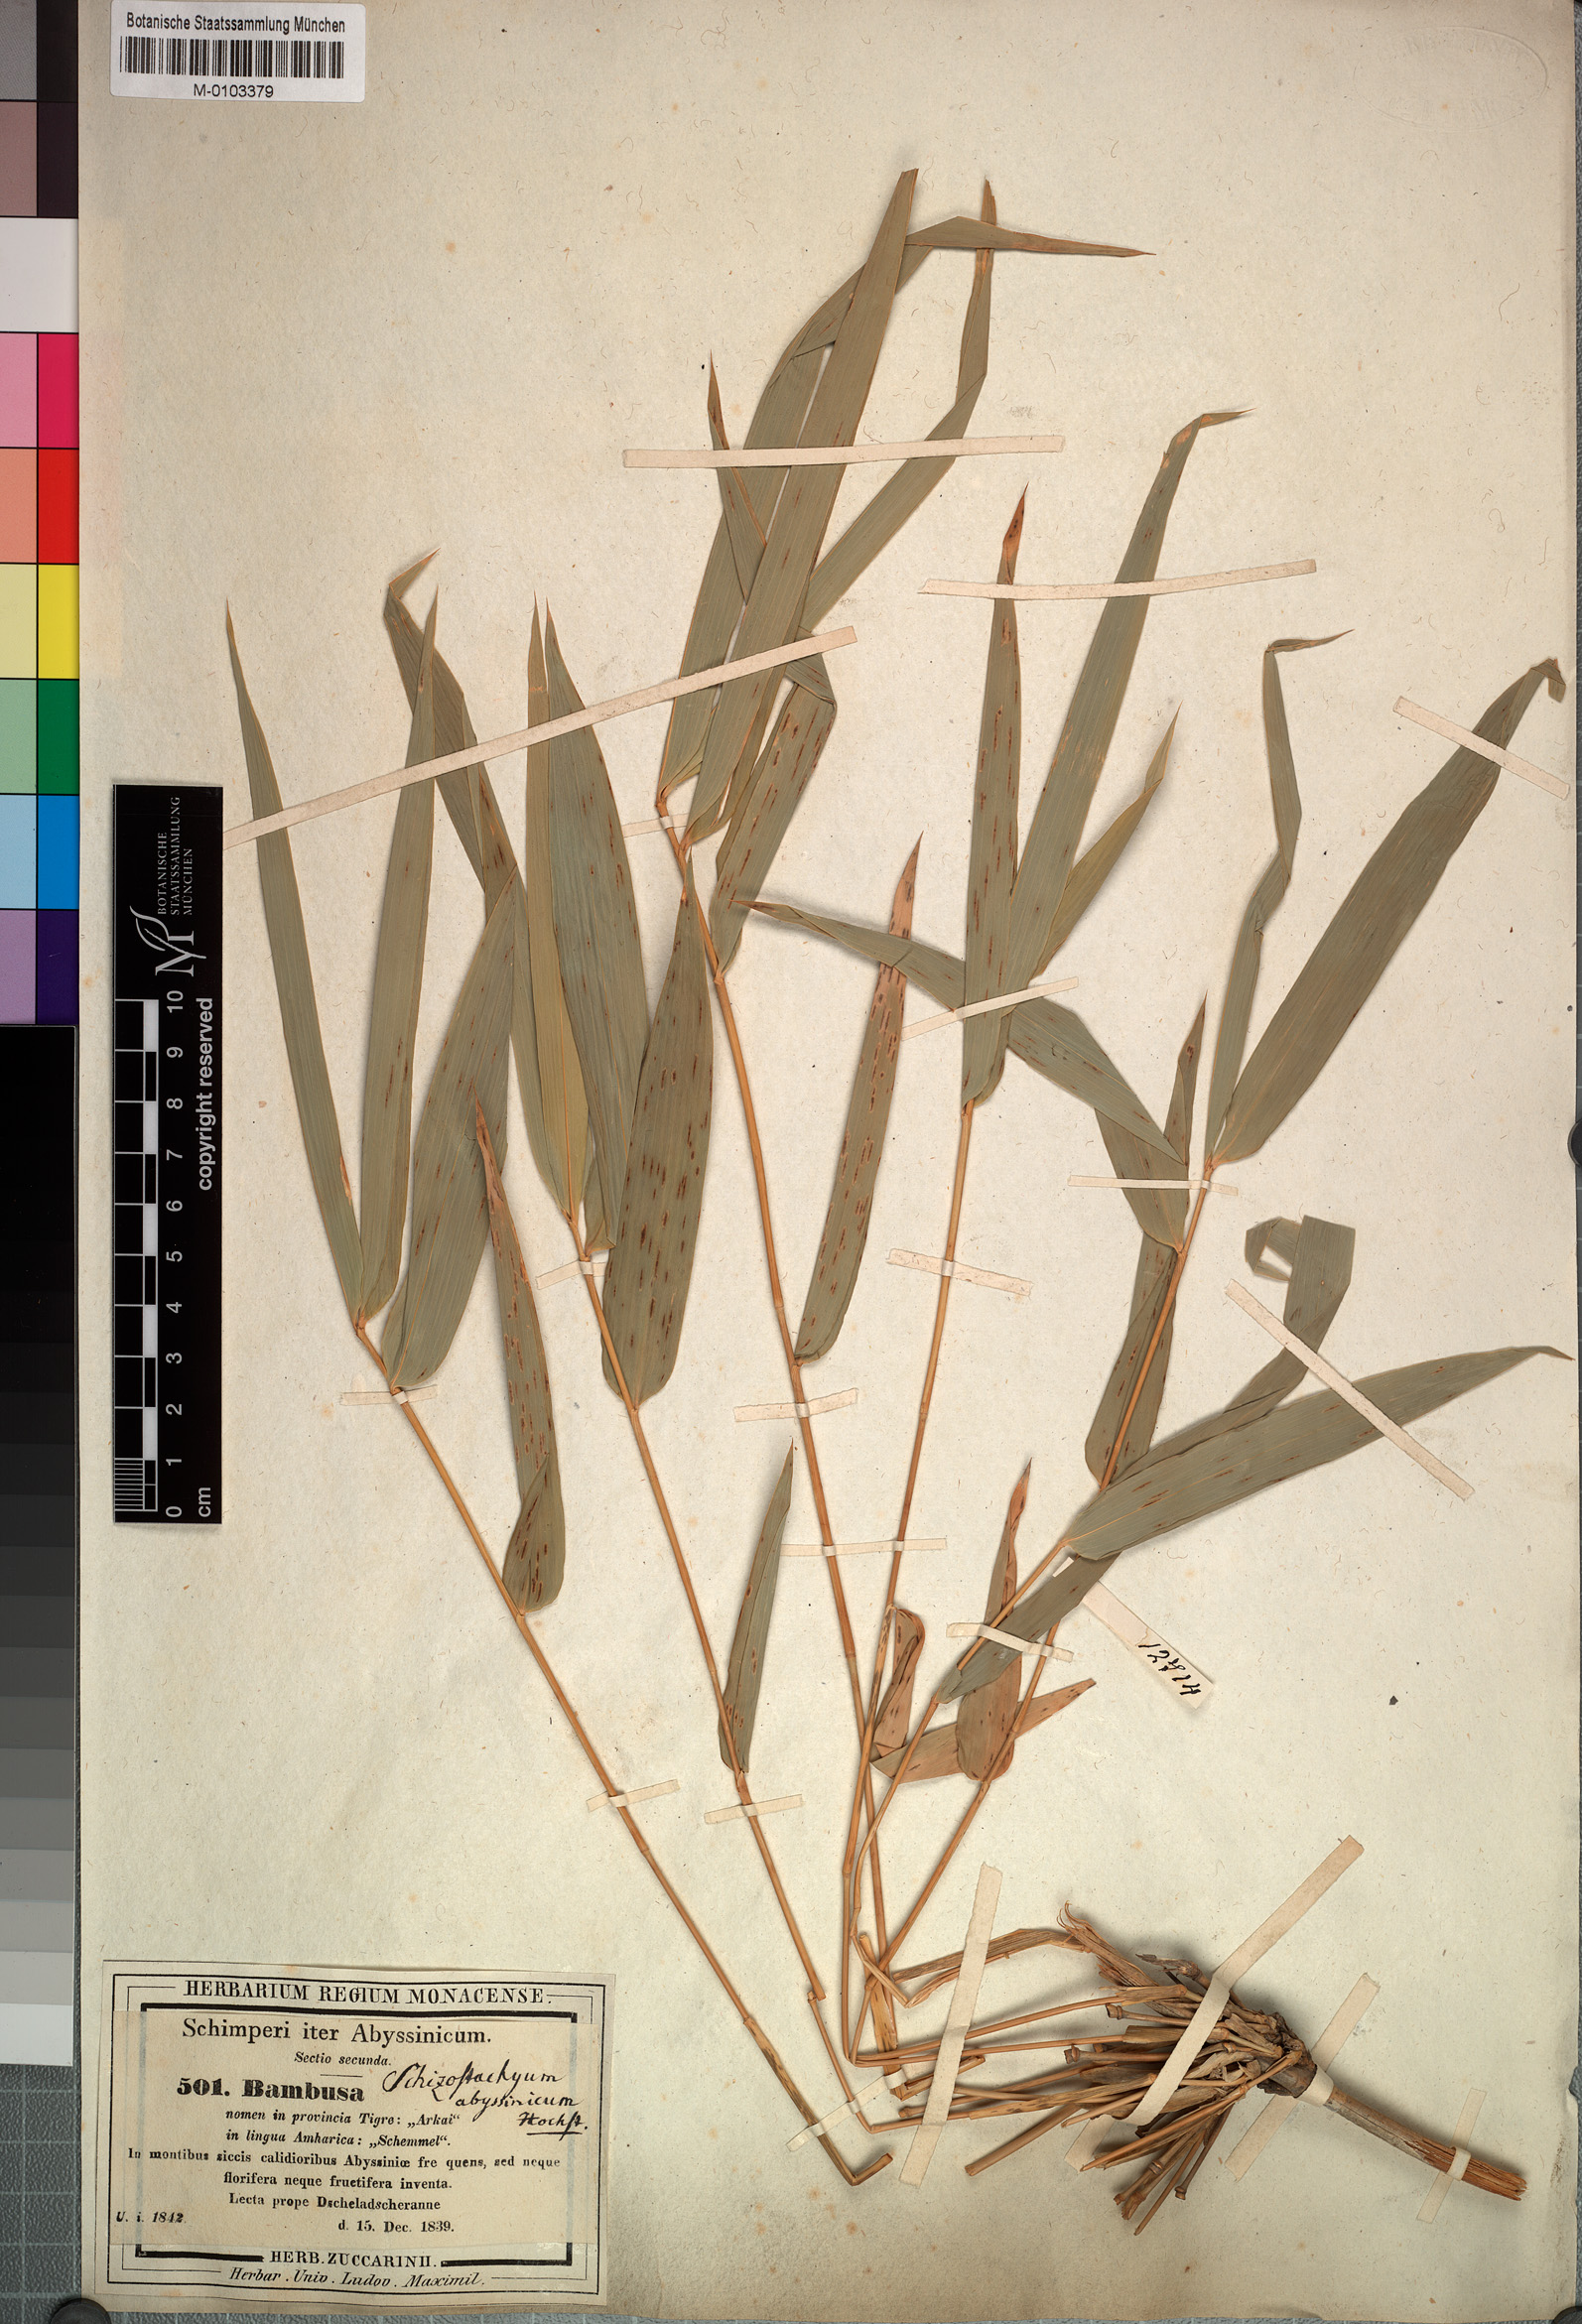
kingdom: Plantae
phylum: Tracheophyta
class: Liliopsida
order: Poales
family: Poaceae
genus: Oxytenanthera
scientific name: Oxytenanthera abyssinica
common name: Wine bamboo
